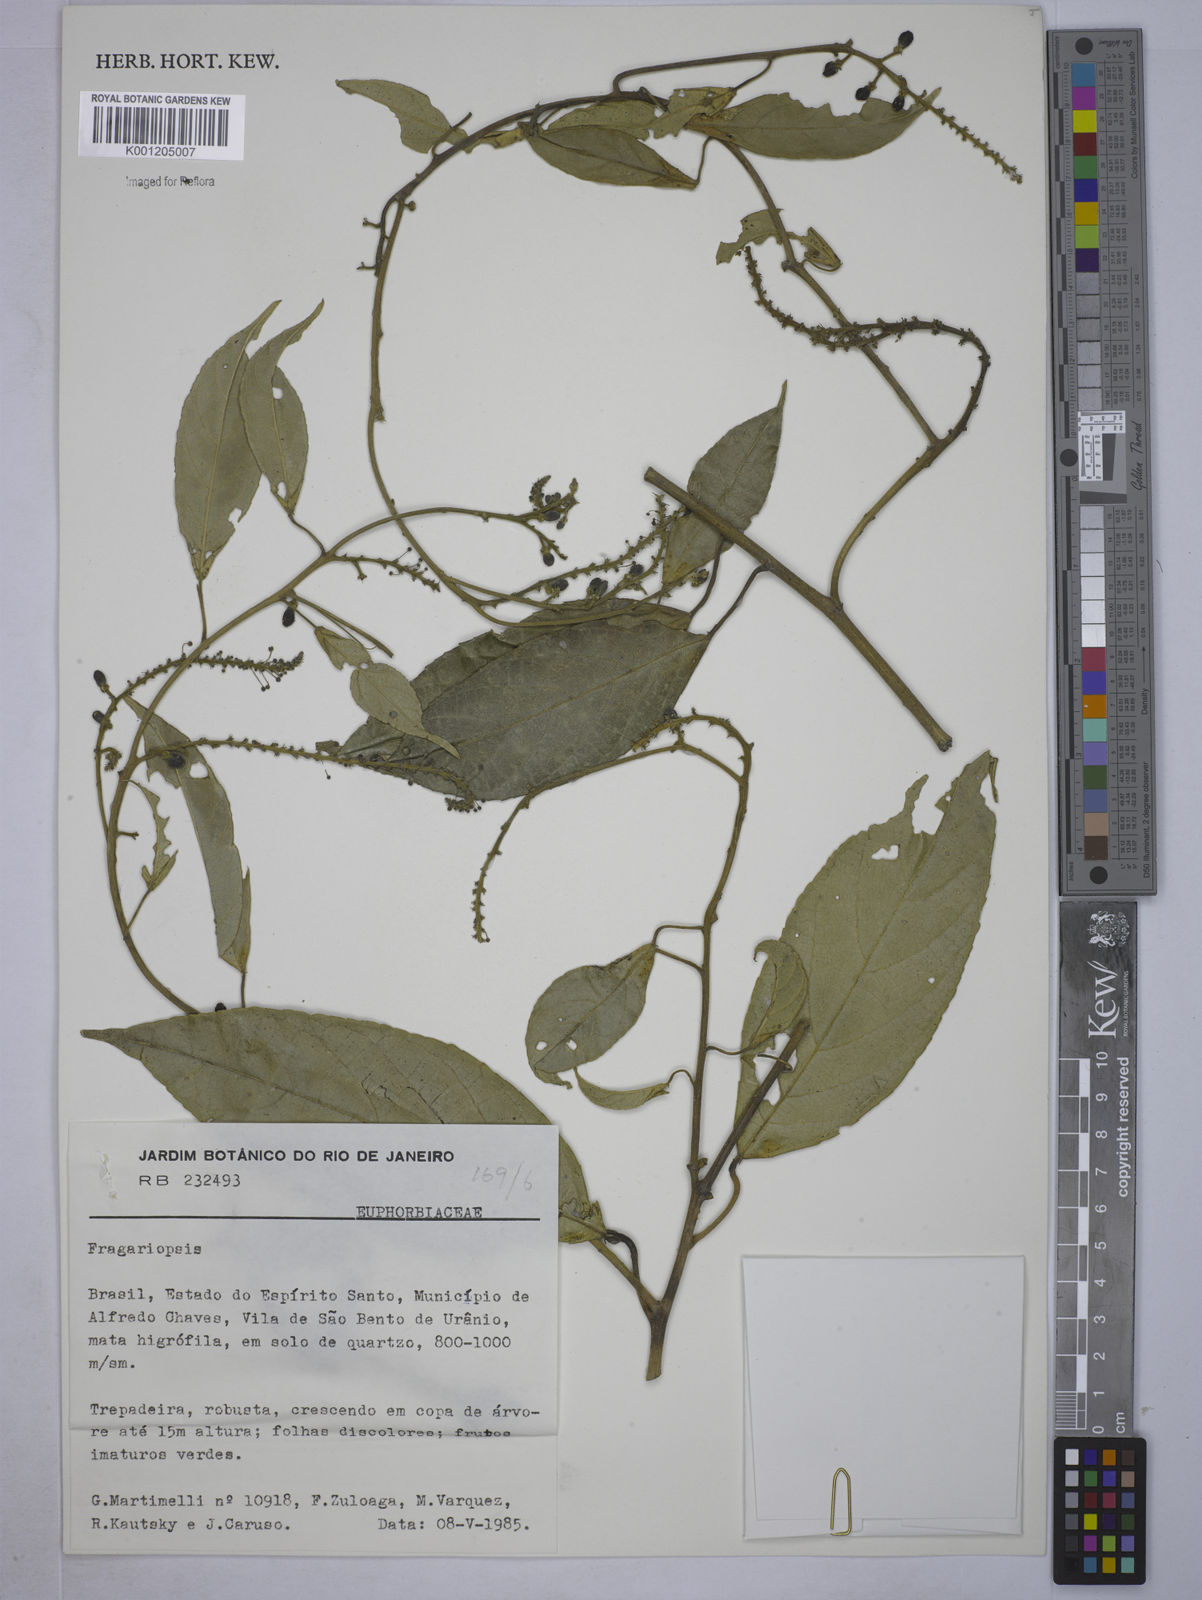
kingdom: Plantae
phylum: Tracheophyta
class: Magnoliopsida
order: Malpighiales
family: Euphorbiaceae
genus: Plukenetia
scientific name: Plukenetia serrata
